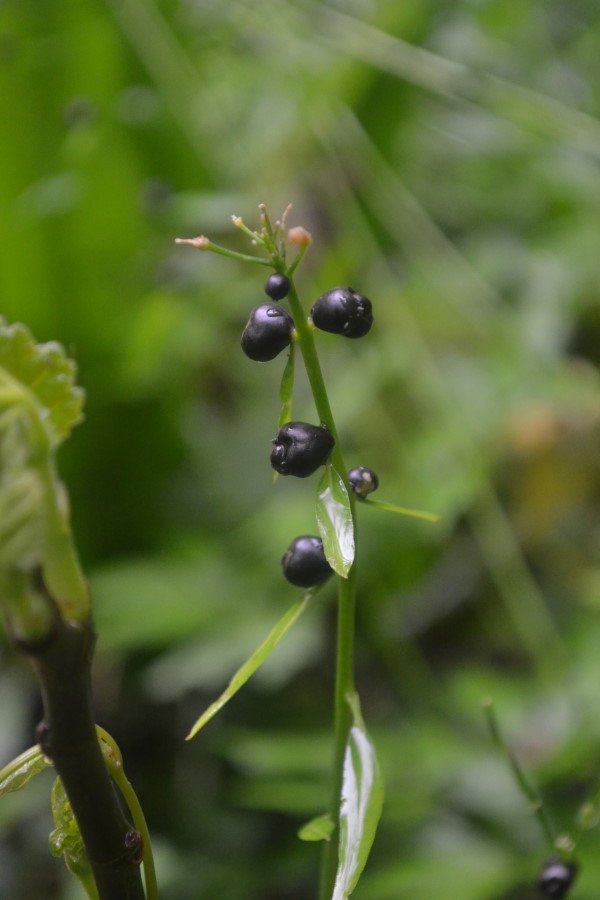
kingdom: Plantae
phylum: Tracheophyta
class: Magnoliopsida
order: Brassicales
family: Brassicaceae
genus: Cardamine
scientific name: Cardamine bulbifera
